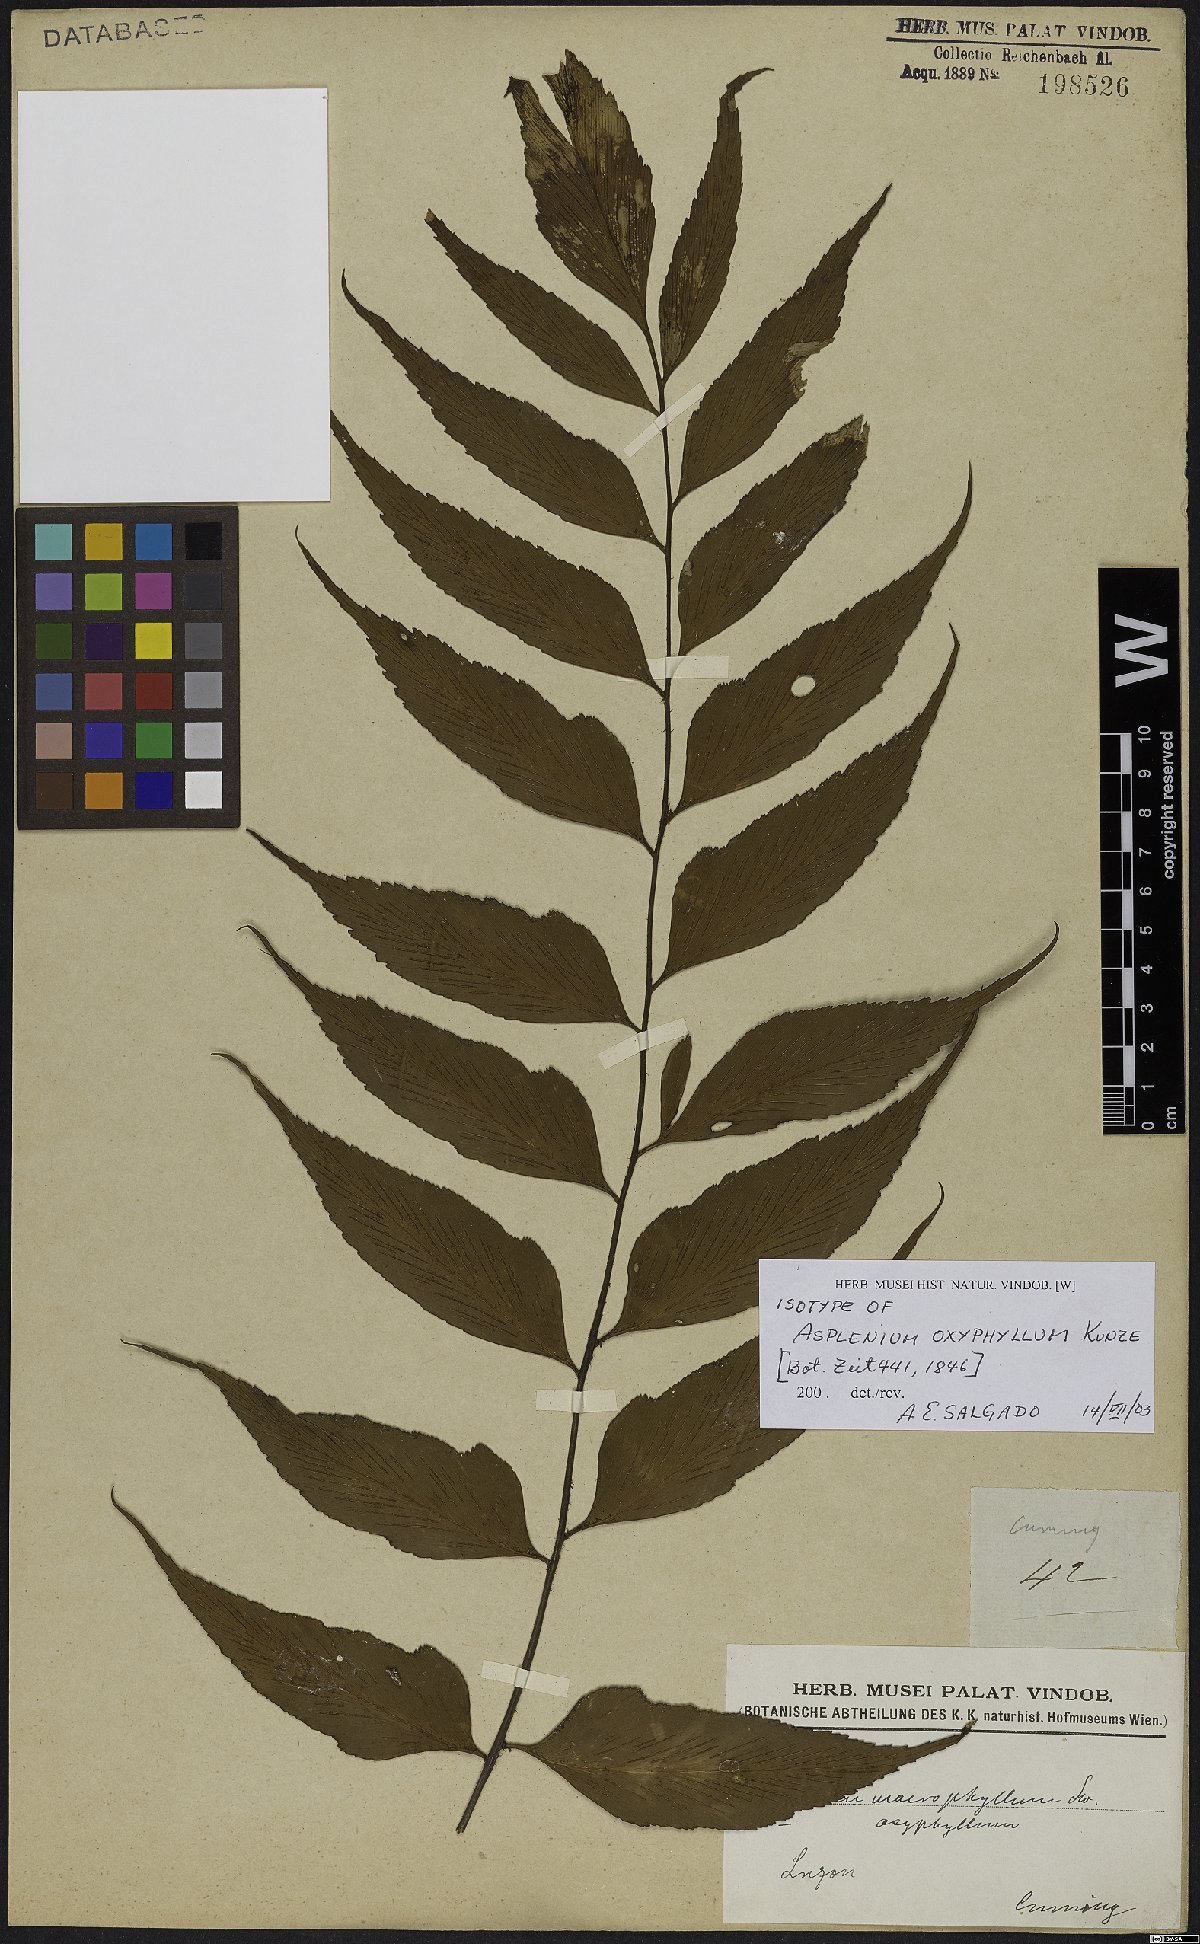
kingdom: Plantae
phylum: Tracheophyta
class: Polypodiopsida
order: Polypodiales
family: Aspleniaceae
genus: Asplenium
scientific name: Asplenium macrophyllum
